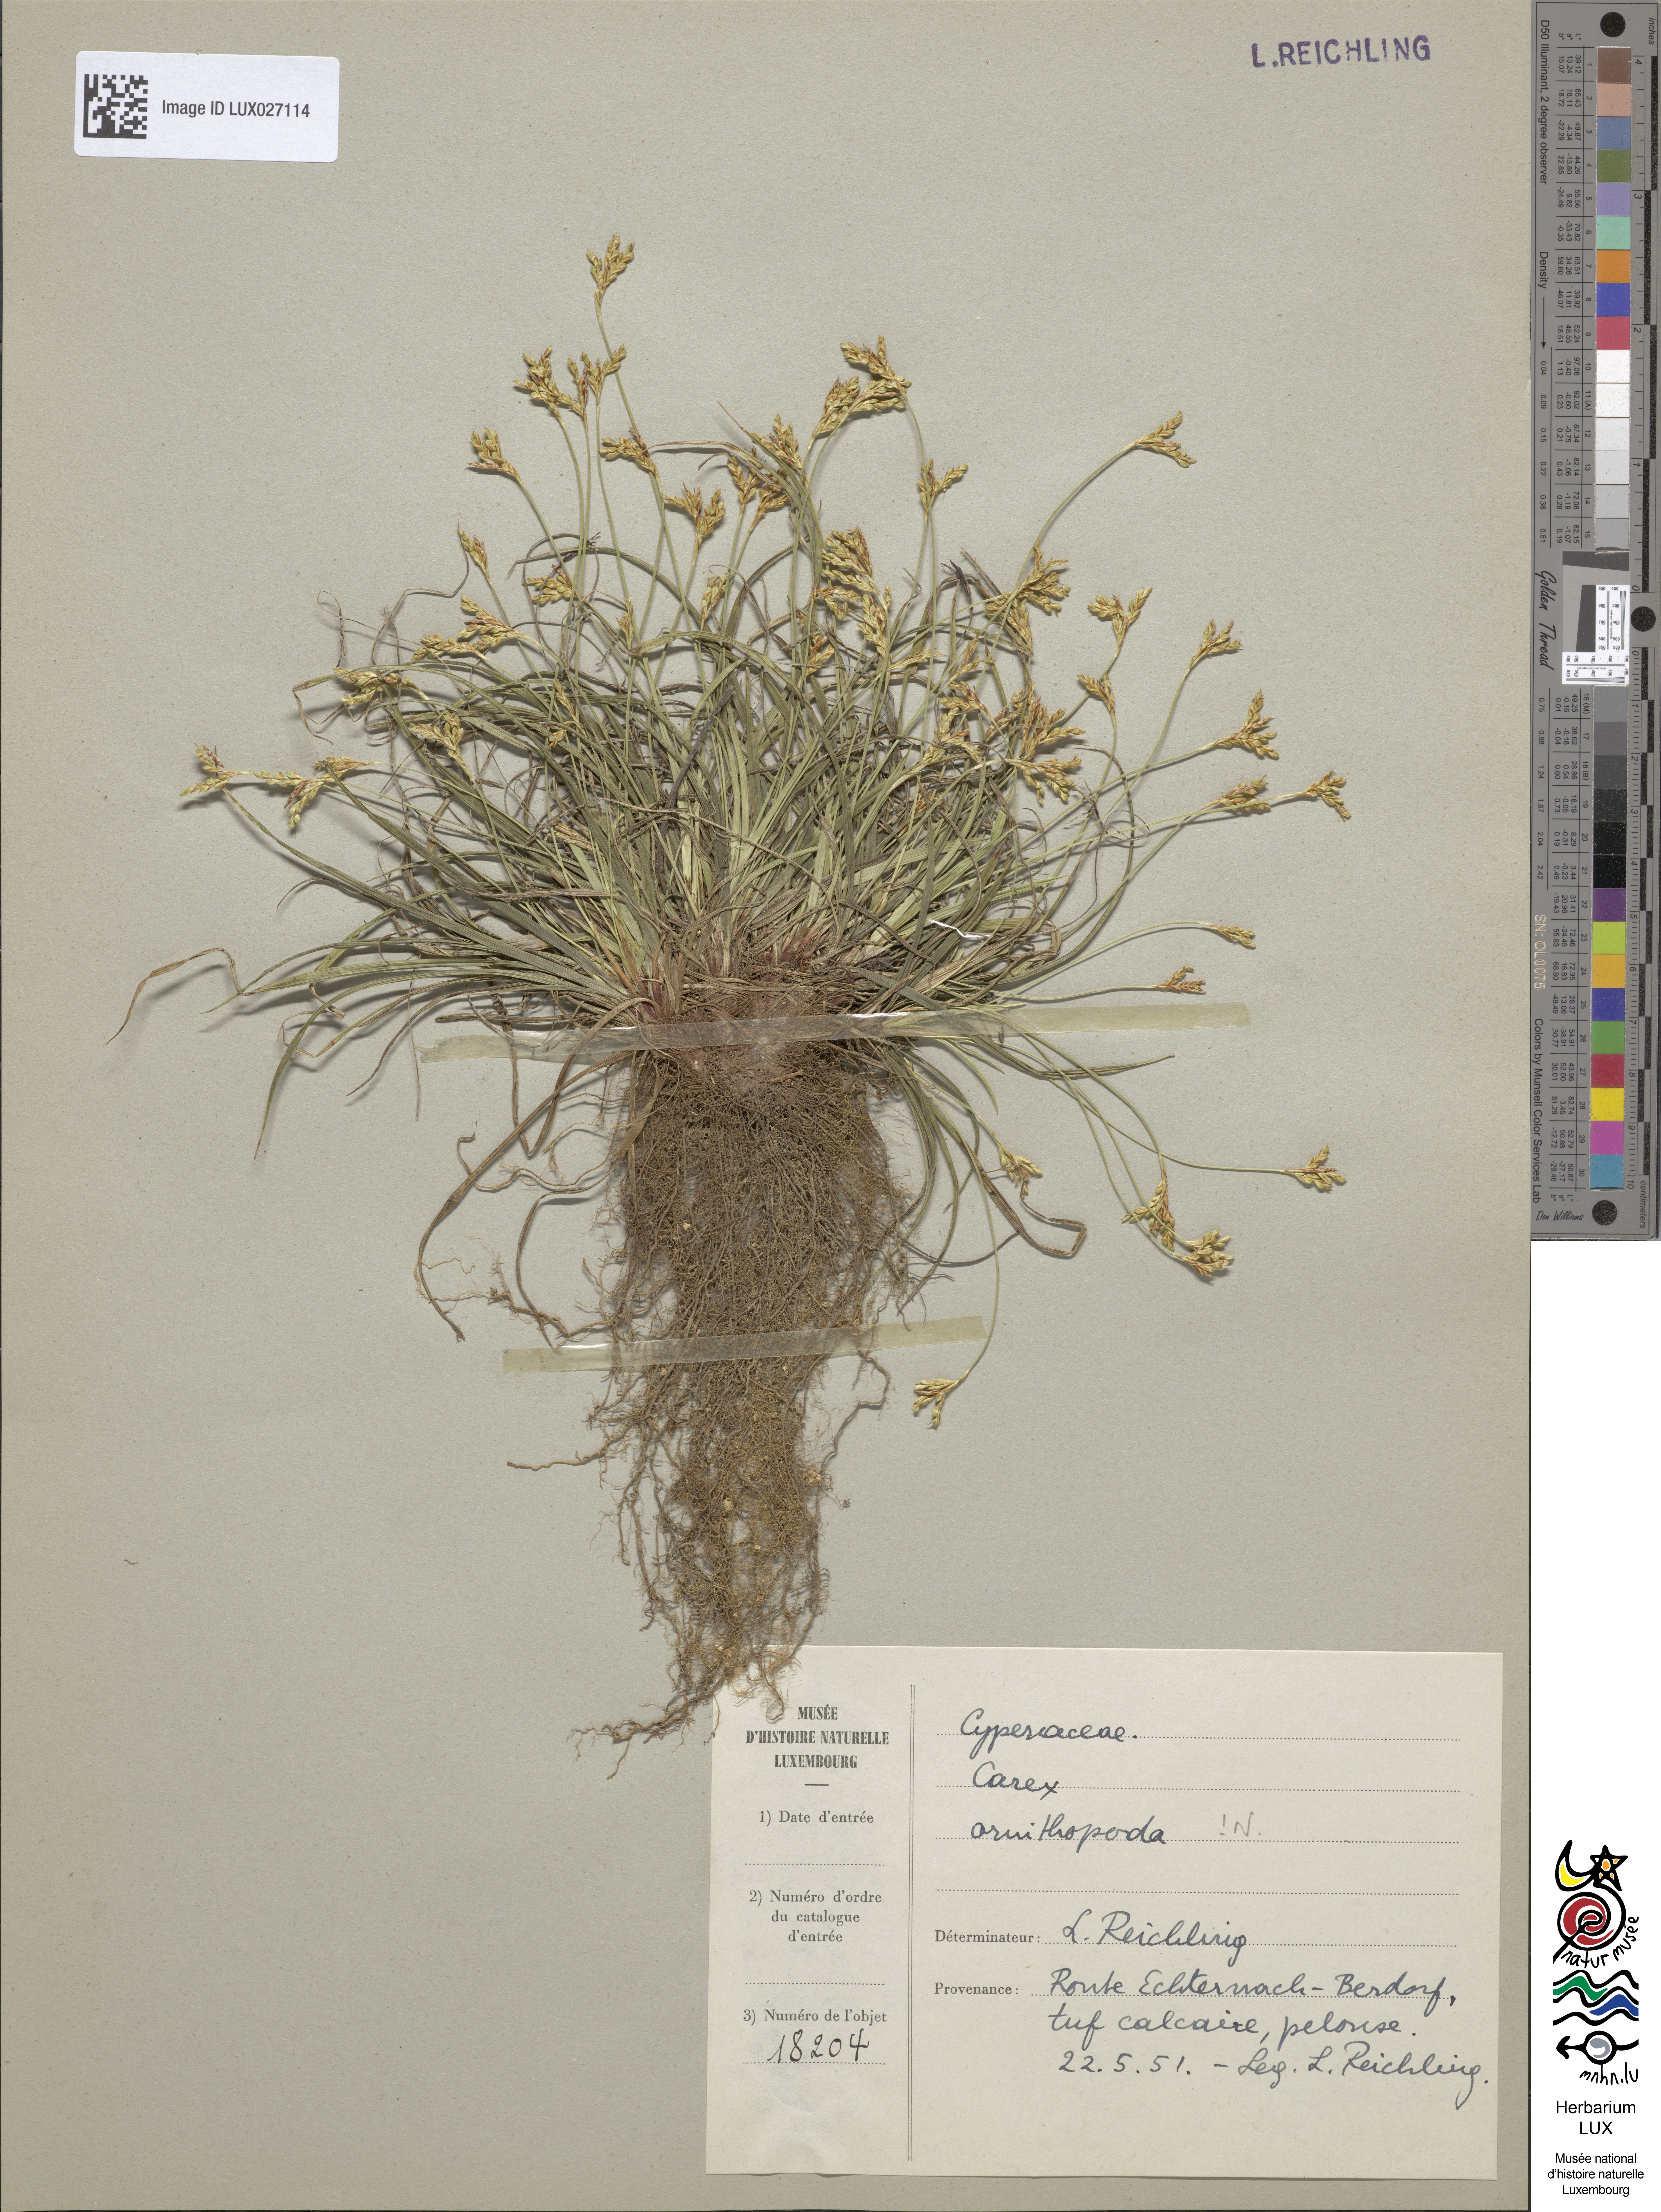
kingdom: Plantae
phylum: Tracheophyta
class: Liliopsida
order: Poales
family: Cyperaceae
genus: Carex
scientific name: Carex ornithopoda
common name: Bird's-foot sedge
